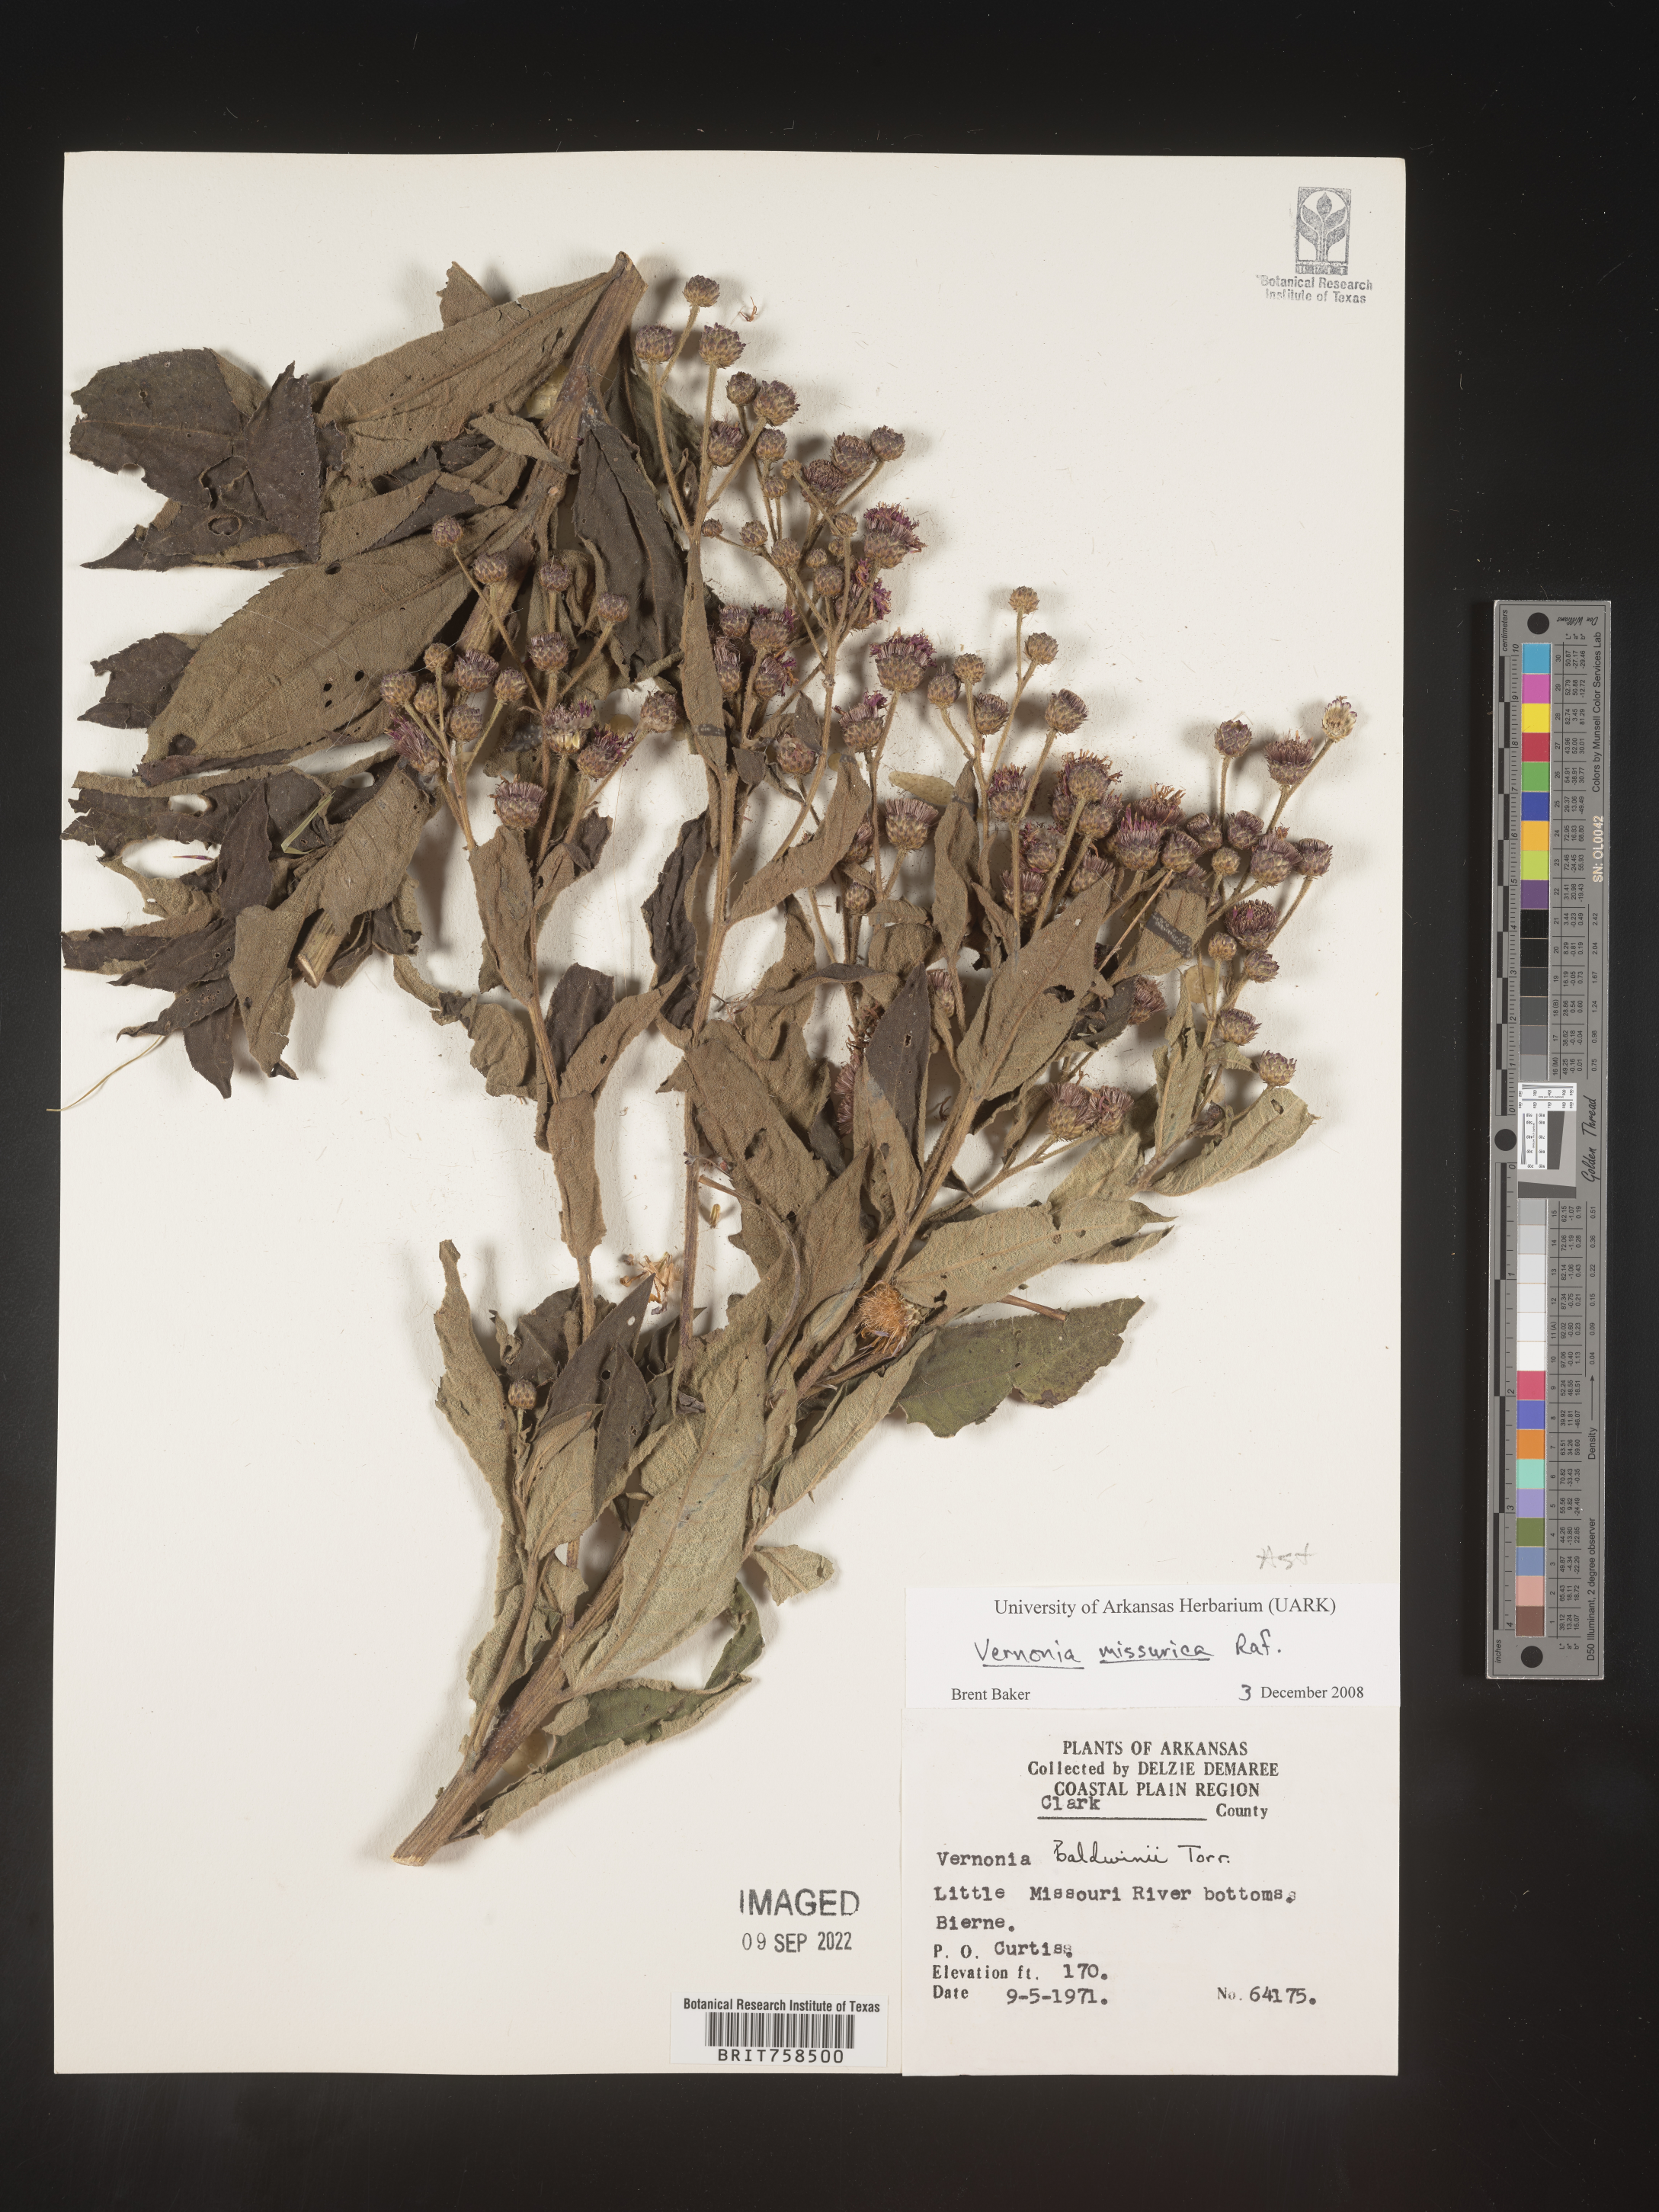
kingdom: Plantae
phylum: Tracheophyta
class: Magnoliopsida
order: Asterales
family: Asteraceae
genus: Vernonia
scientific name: Vernonia missurica
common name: Missouri ironweed
